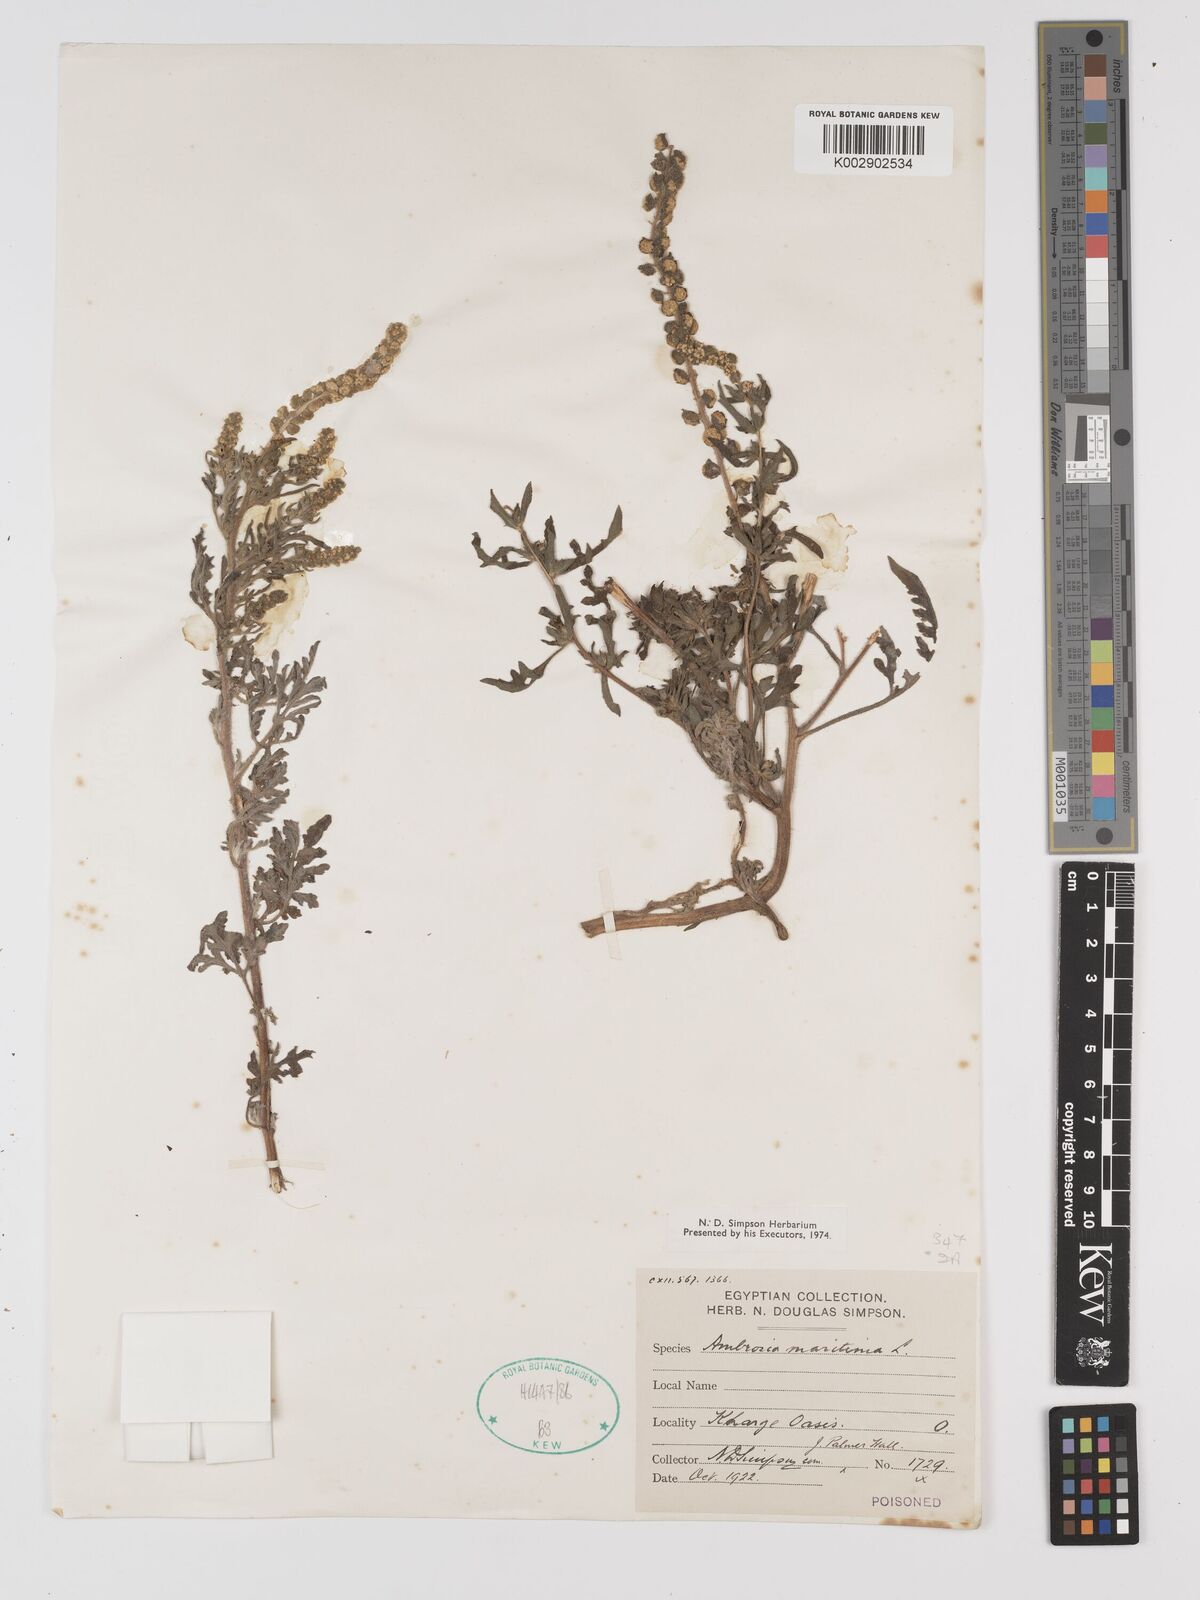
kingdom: Plantae
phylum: Tracheophyta
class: Magnoliopsida
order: Asterales
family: Asteraceae
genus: Ambrosia
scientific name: Ambrosia maritima
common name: Sea ambrosia
